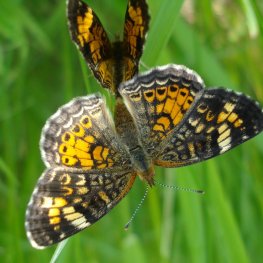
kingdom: Animalia
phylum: Arthropoda
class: Insecta
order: Lepidoptera
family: Nymphalidae
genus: Phyciodes
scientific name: Phyciodes tharos
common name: Northern Crescent
